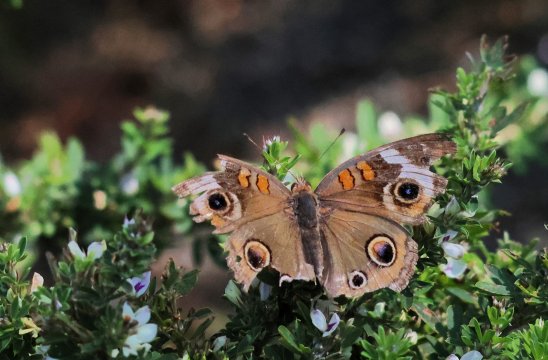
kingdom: Animalia
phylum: Arthropoda
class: Insecta
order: Lepidoptera
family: Nymphalidae
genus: Junonia
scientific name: Junonia coenia
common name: Common Buckeye
